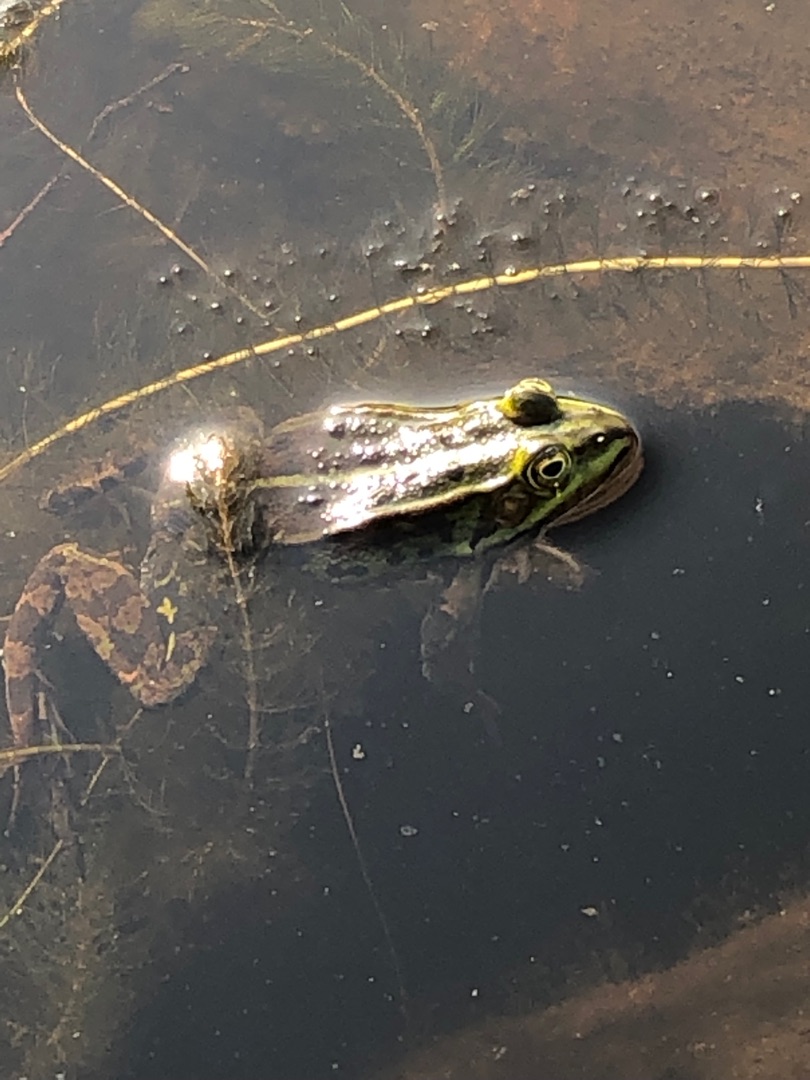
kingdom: Animalia
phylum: Chordata
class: Amphibia
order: Anura
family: Ranidae
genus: Pelophylax
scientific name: Pelophylax
